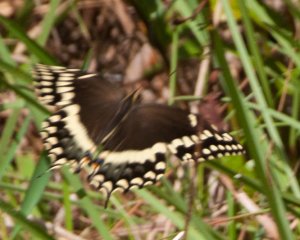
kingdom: Animalia
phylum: Arthropoda
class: Insecta
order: Lepidoptera
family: Papilionidae
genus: Pterourus
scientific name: Pterourus palamedes
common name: Palamedes Swallowtail
